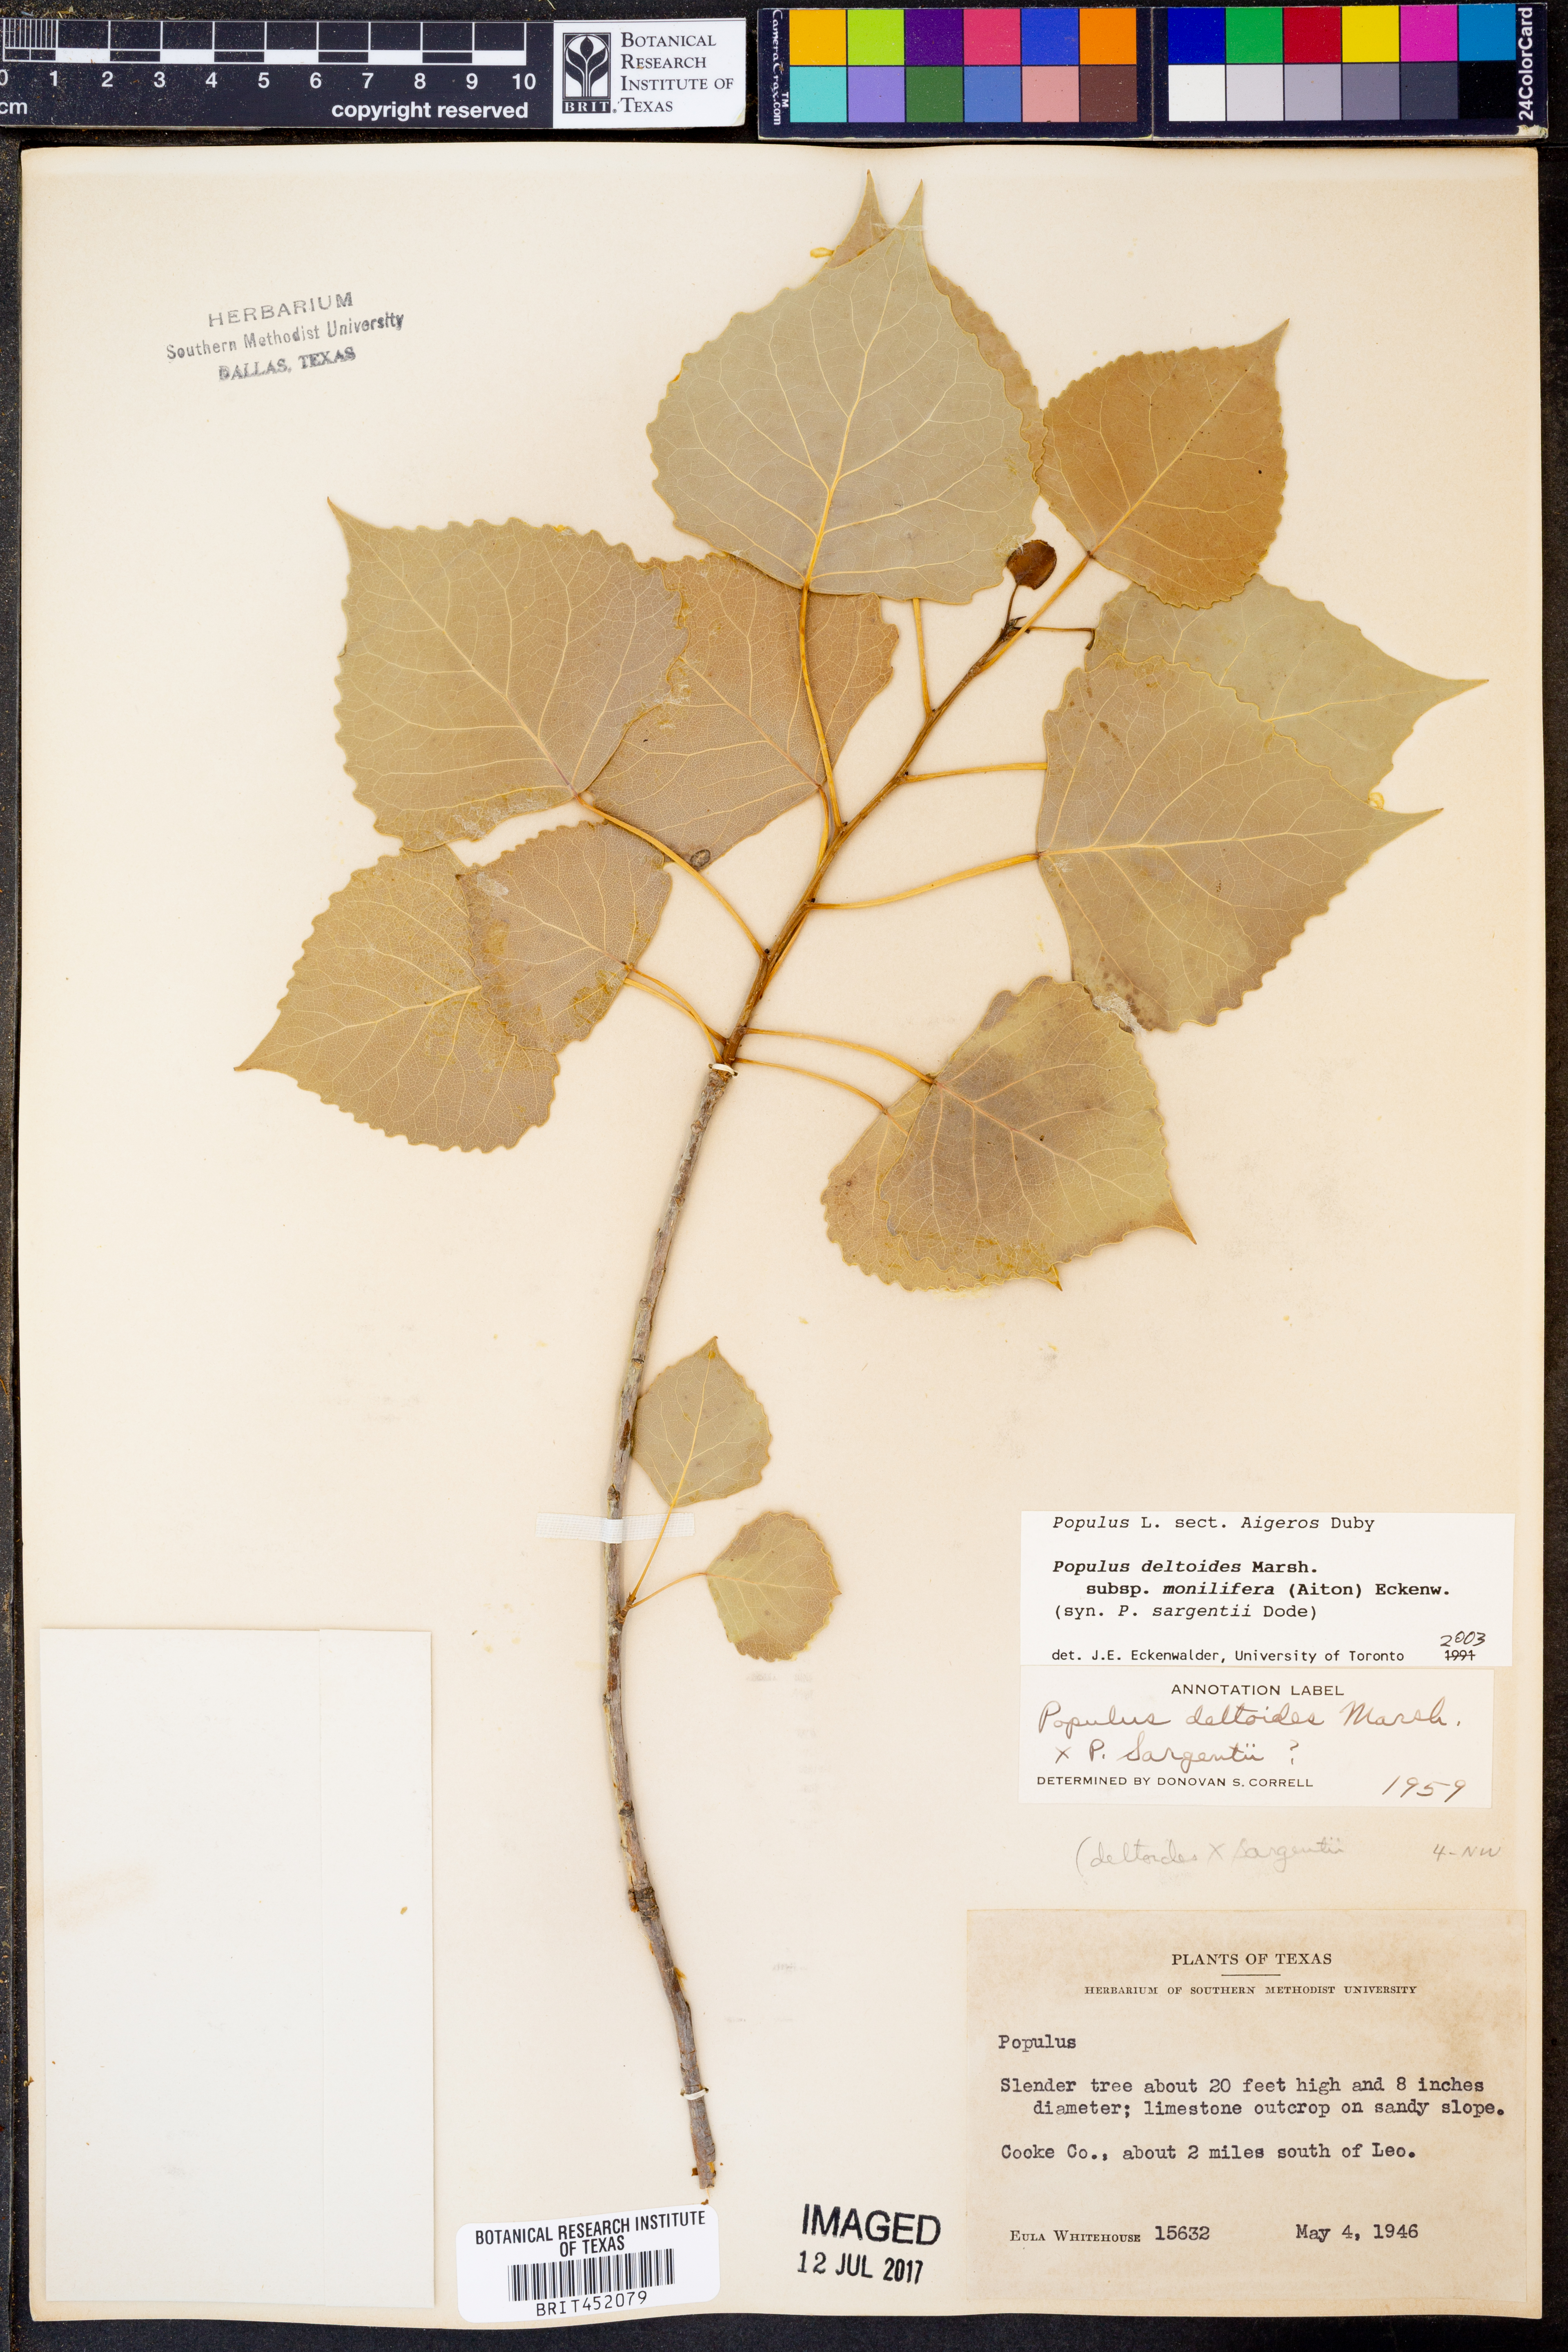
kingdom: Plantae
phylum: Tracheophyta
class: Magnoliopsida
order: Malpighiales
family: Salicaceae
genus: Populus
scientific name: Populus deltoides
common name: Eastern cottonwood
